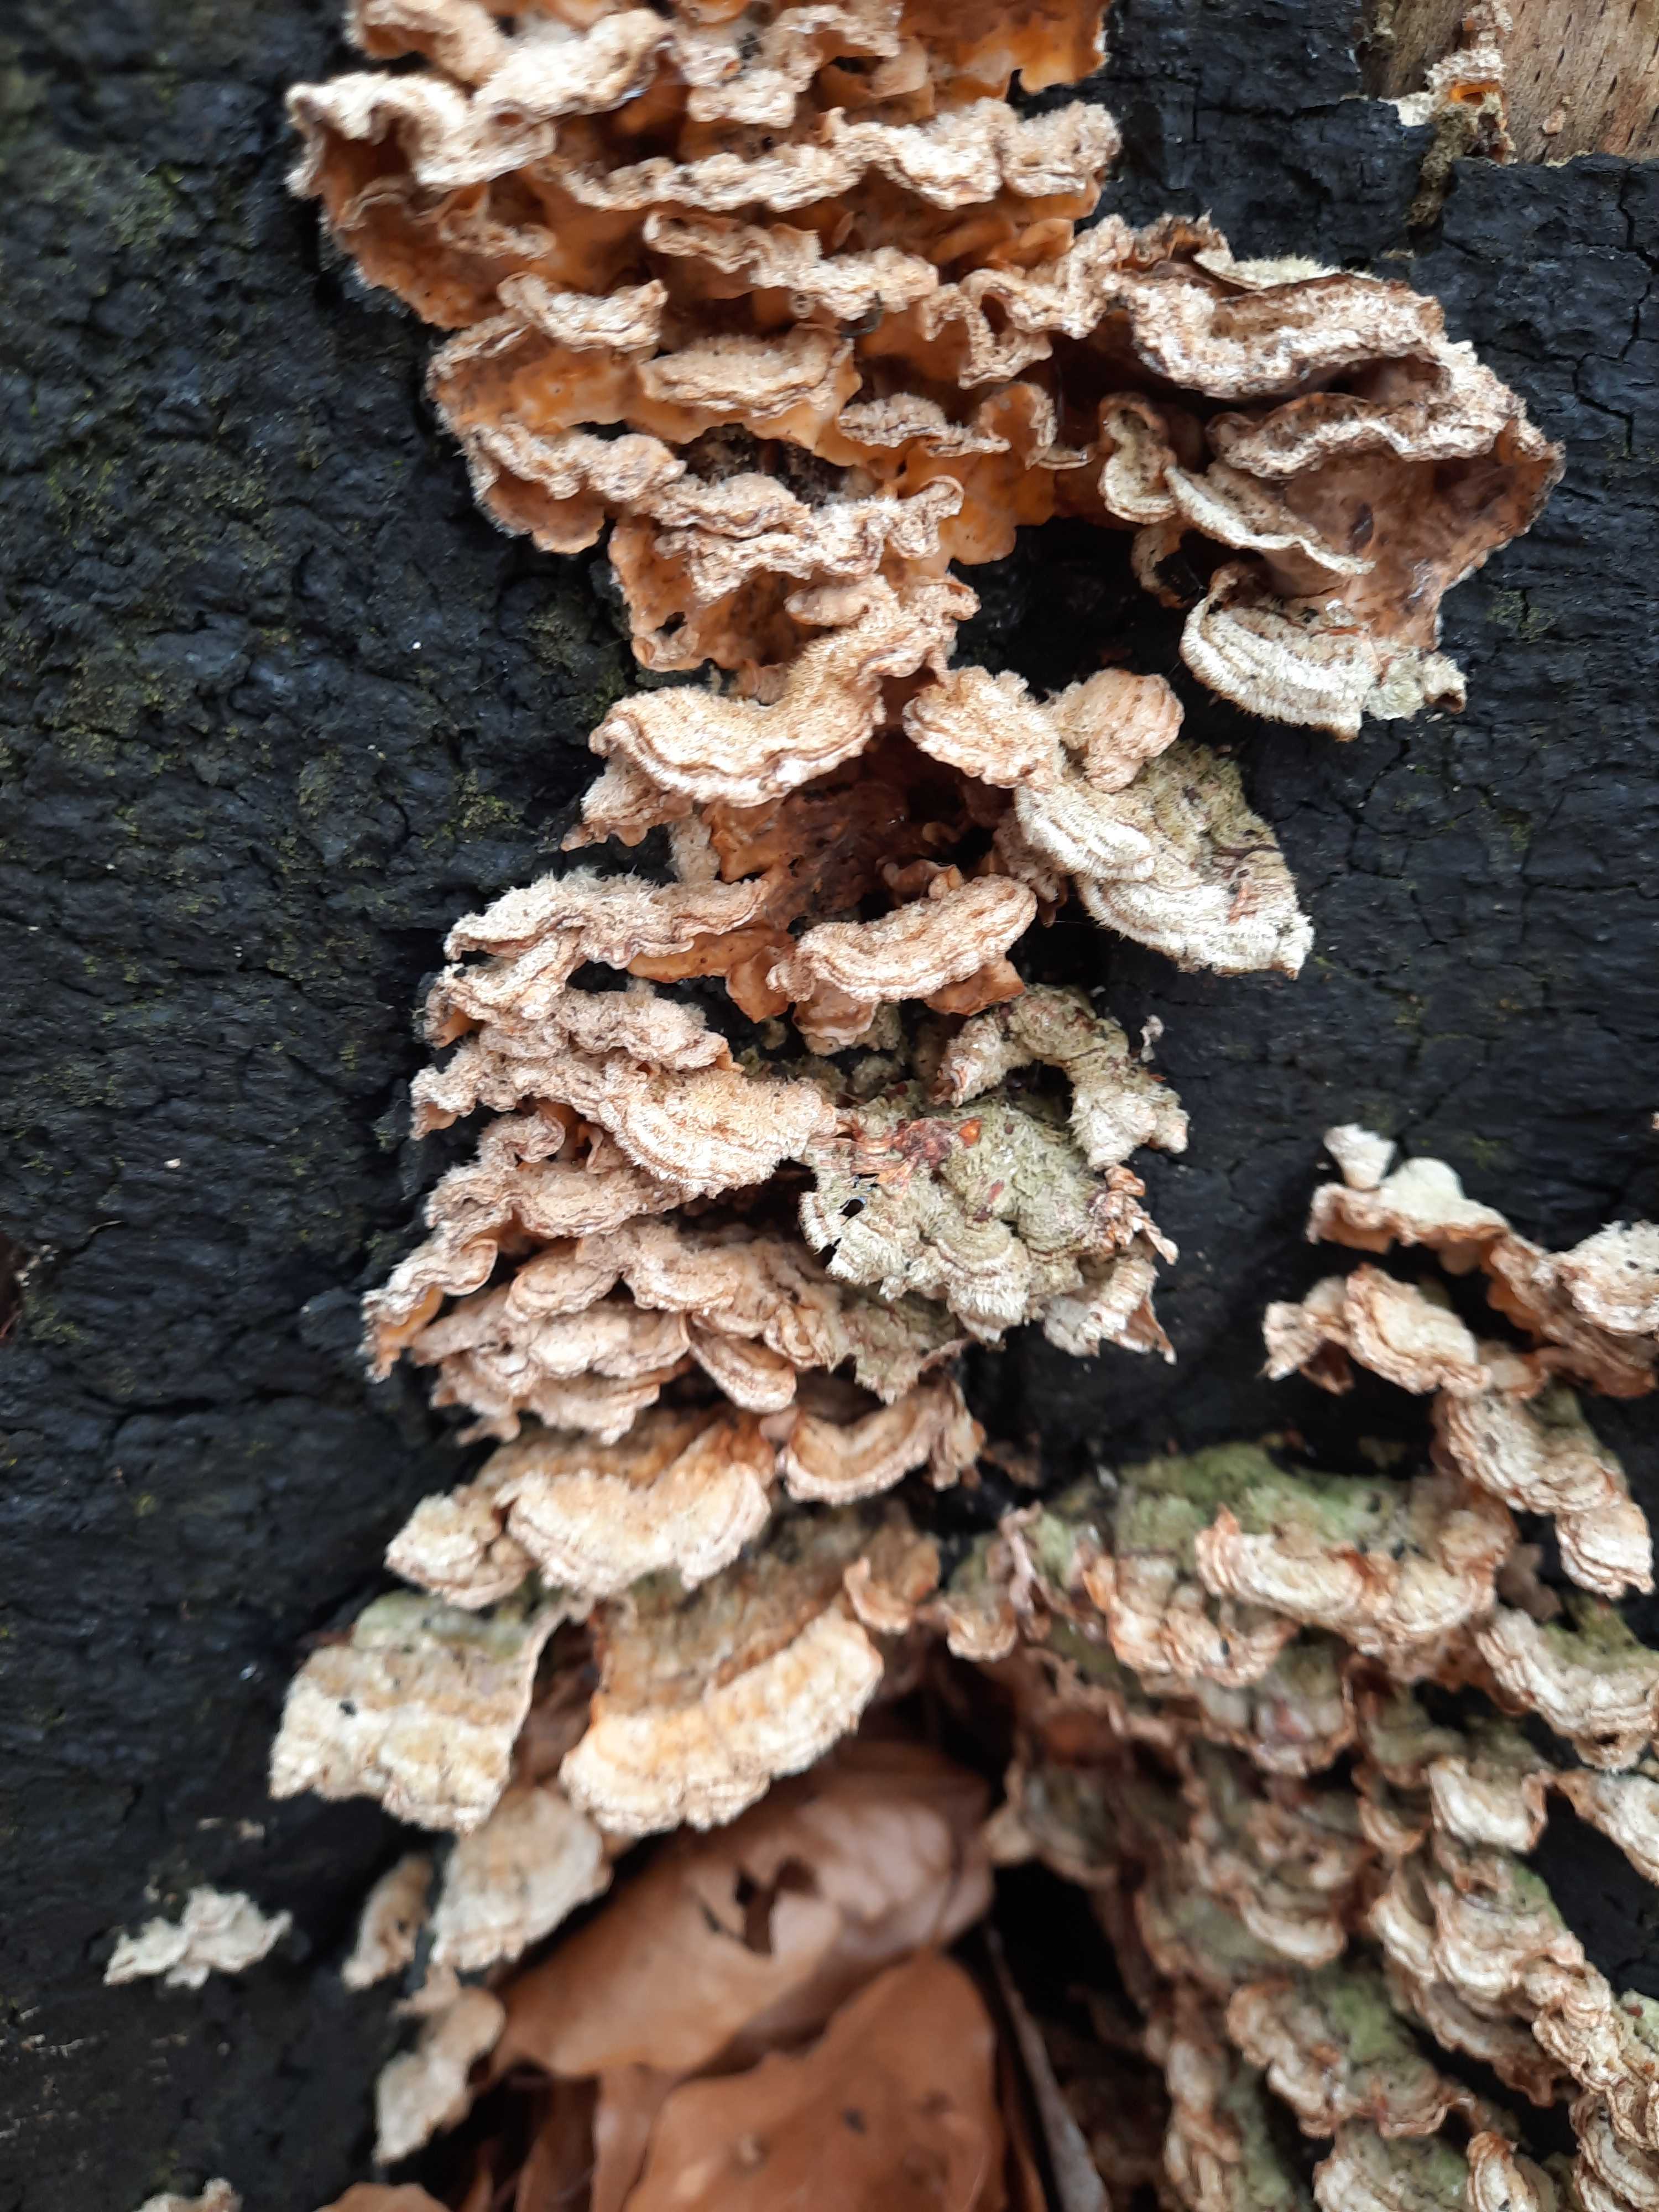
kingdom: Fungi
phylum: Basidiomycota
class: Agaricomycetes
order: Russulales
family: Stereaceae
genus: Stereum
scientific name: Stereum hirsutum
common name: håret lædersvamp
